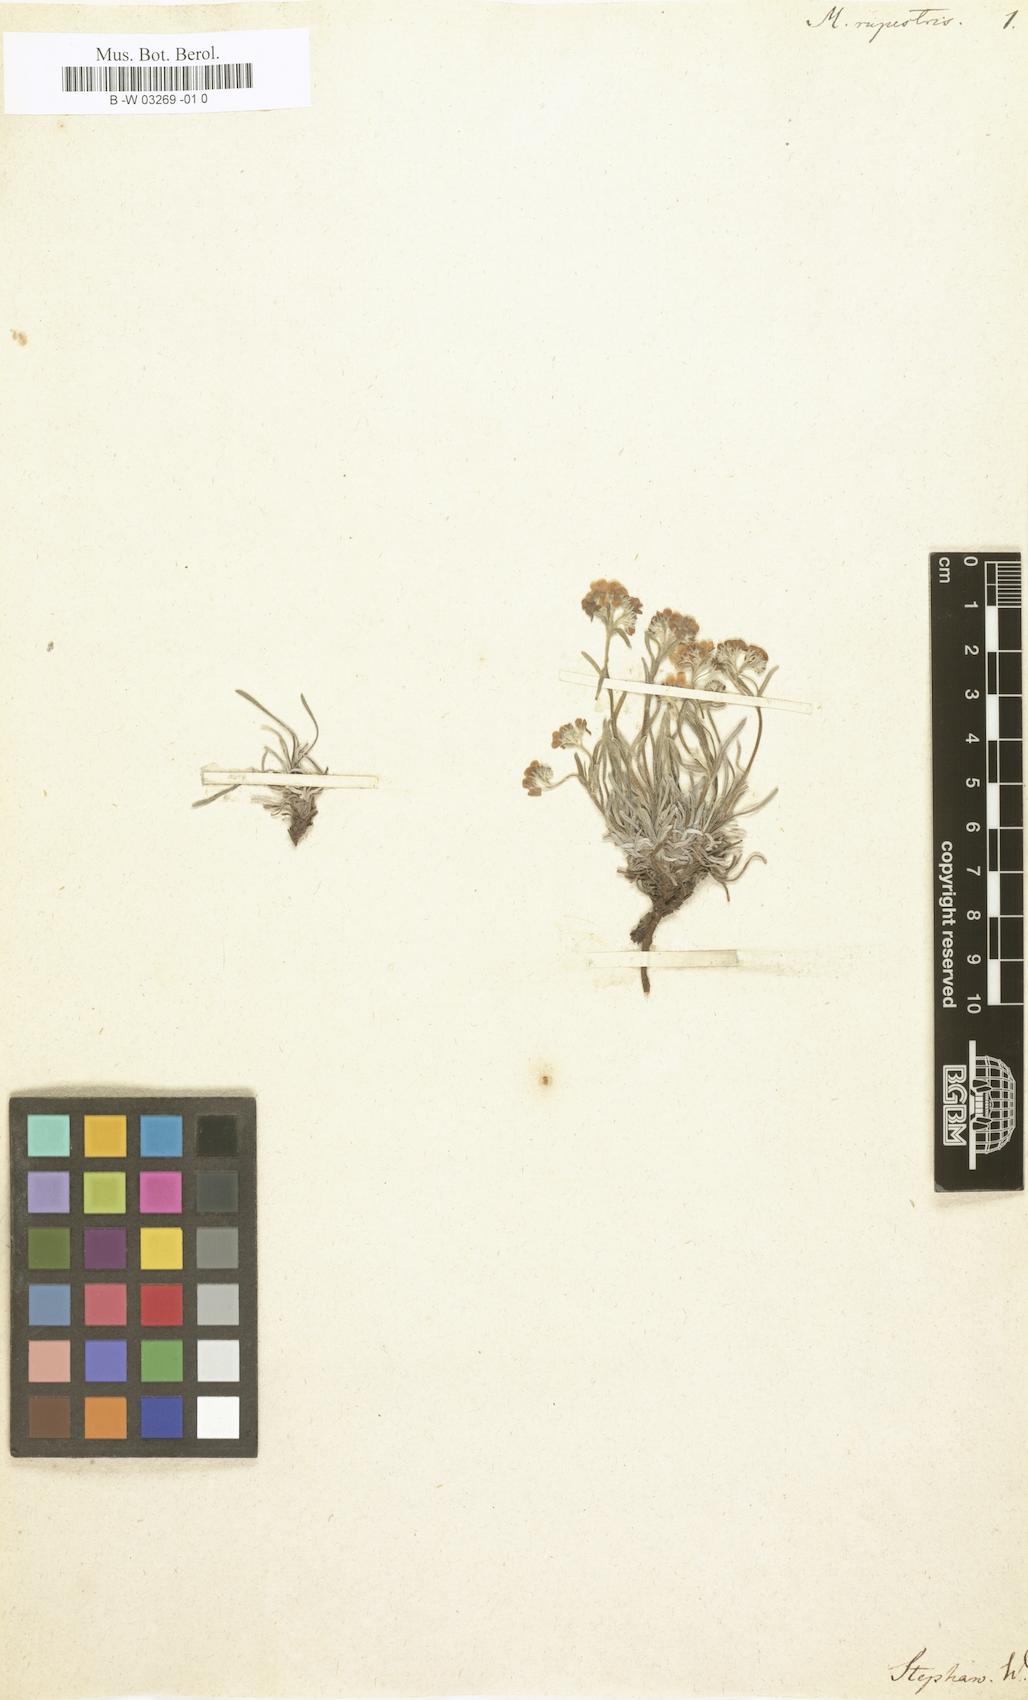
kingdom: Plantae
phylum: Tracheophyta
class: Magnoliopsida
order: Boraginales
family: Boraginaceae
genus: Myosotis
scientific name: Myosotis rupestris
